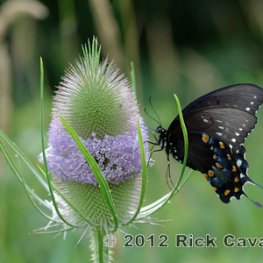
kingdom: Animalia
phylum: Arthropoda
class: Insecta
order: Lepidoptera
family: Papilionidae
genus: Pterourus
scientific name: Pterourus troilus
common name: Spicebush Swallowtail
